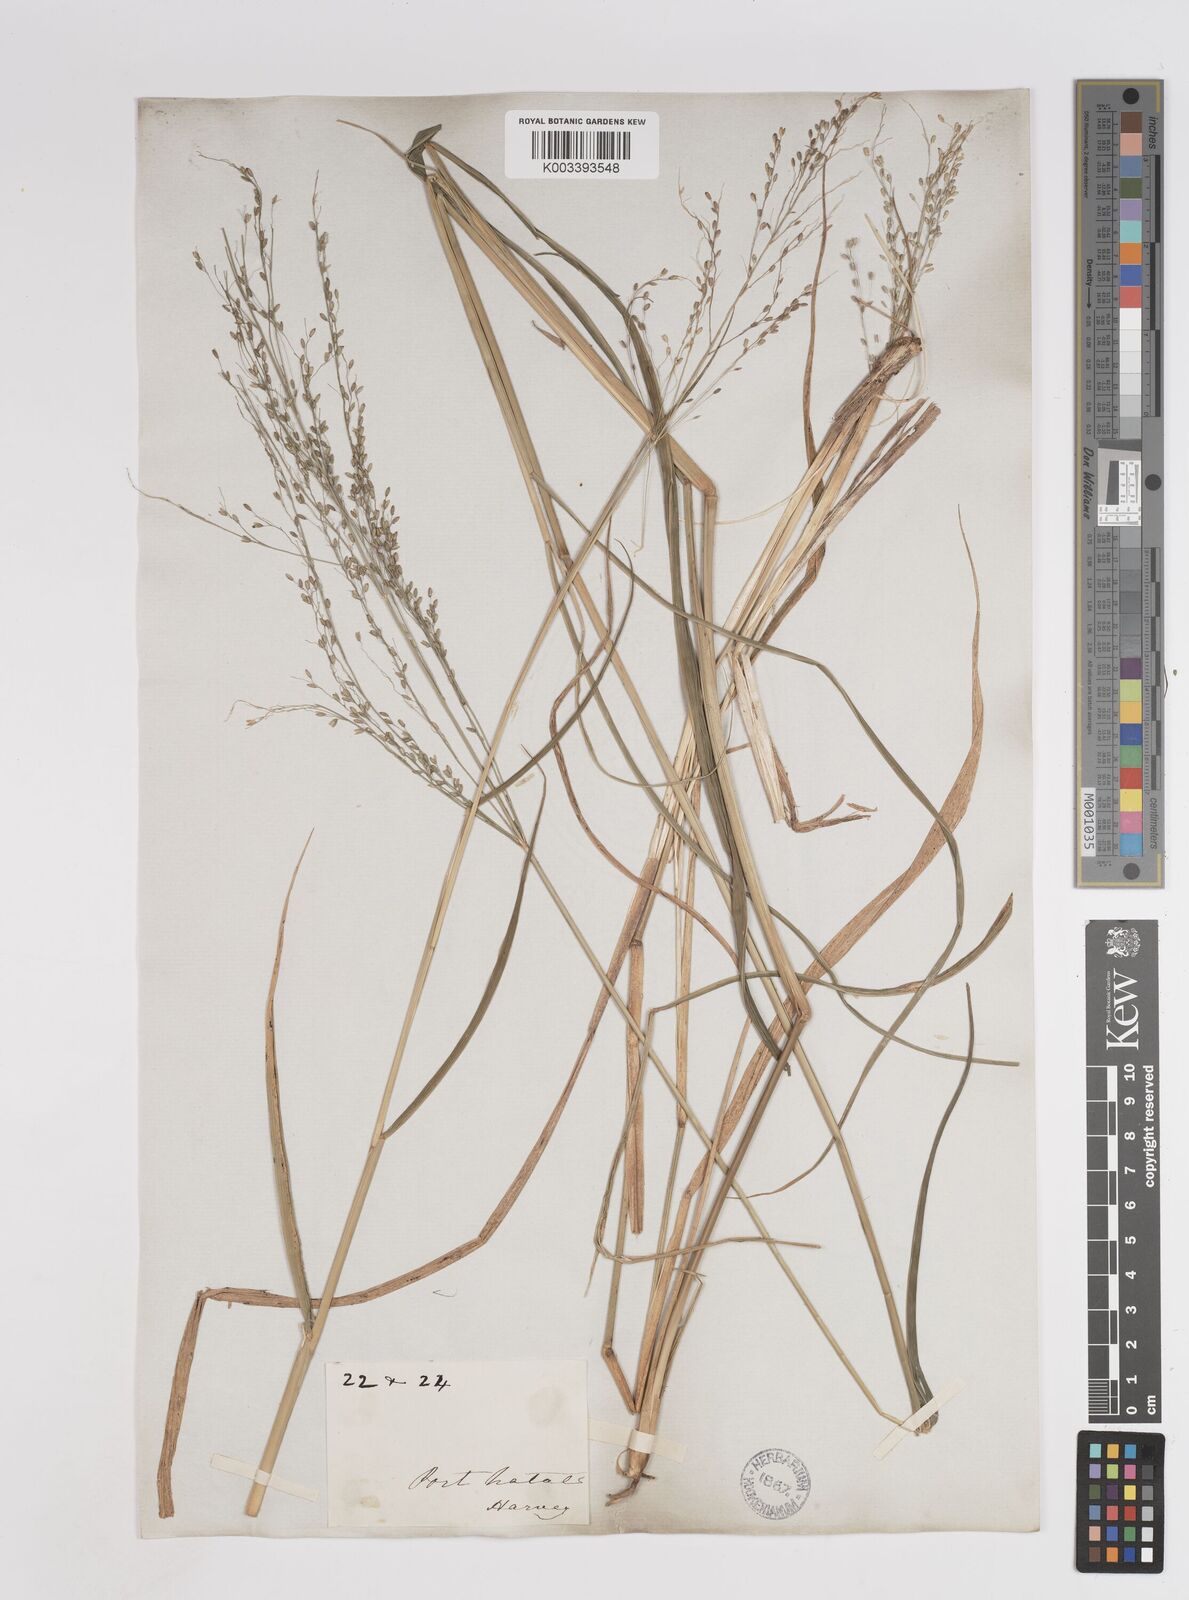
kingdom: Plantae
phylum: Tracheophyta
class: Liliopsida
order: Poales
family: Poaceae
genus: Megathyrsus
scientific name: Megathyrsus maximus
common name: Guineagrass
